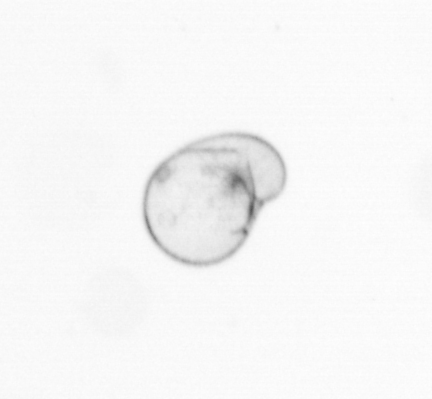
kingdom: Chromista
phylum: Myzozoa
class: Dinophyceae
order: Noctilucales
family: Noctilucaceae
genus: Noctiluca
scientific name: Noctiluca scintillans
